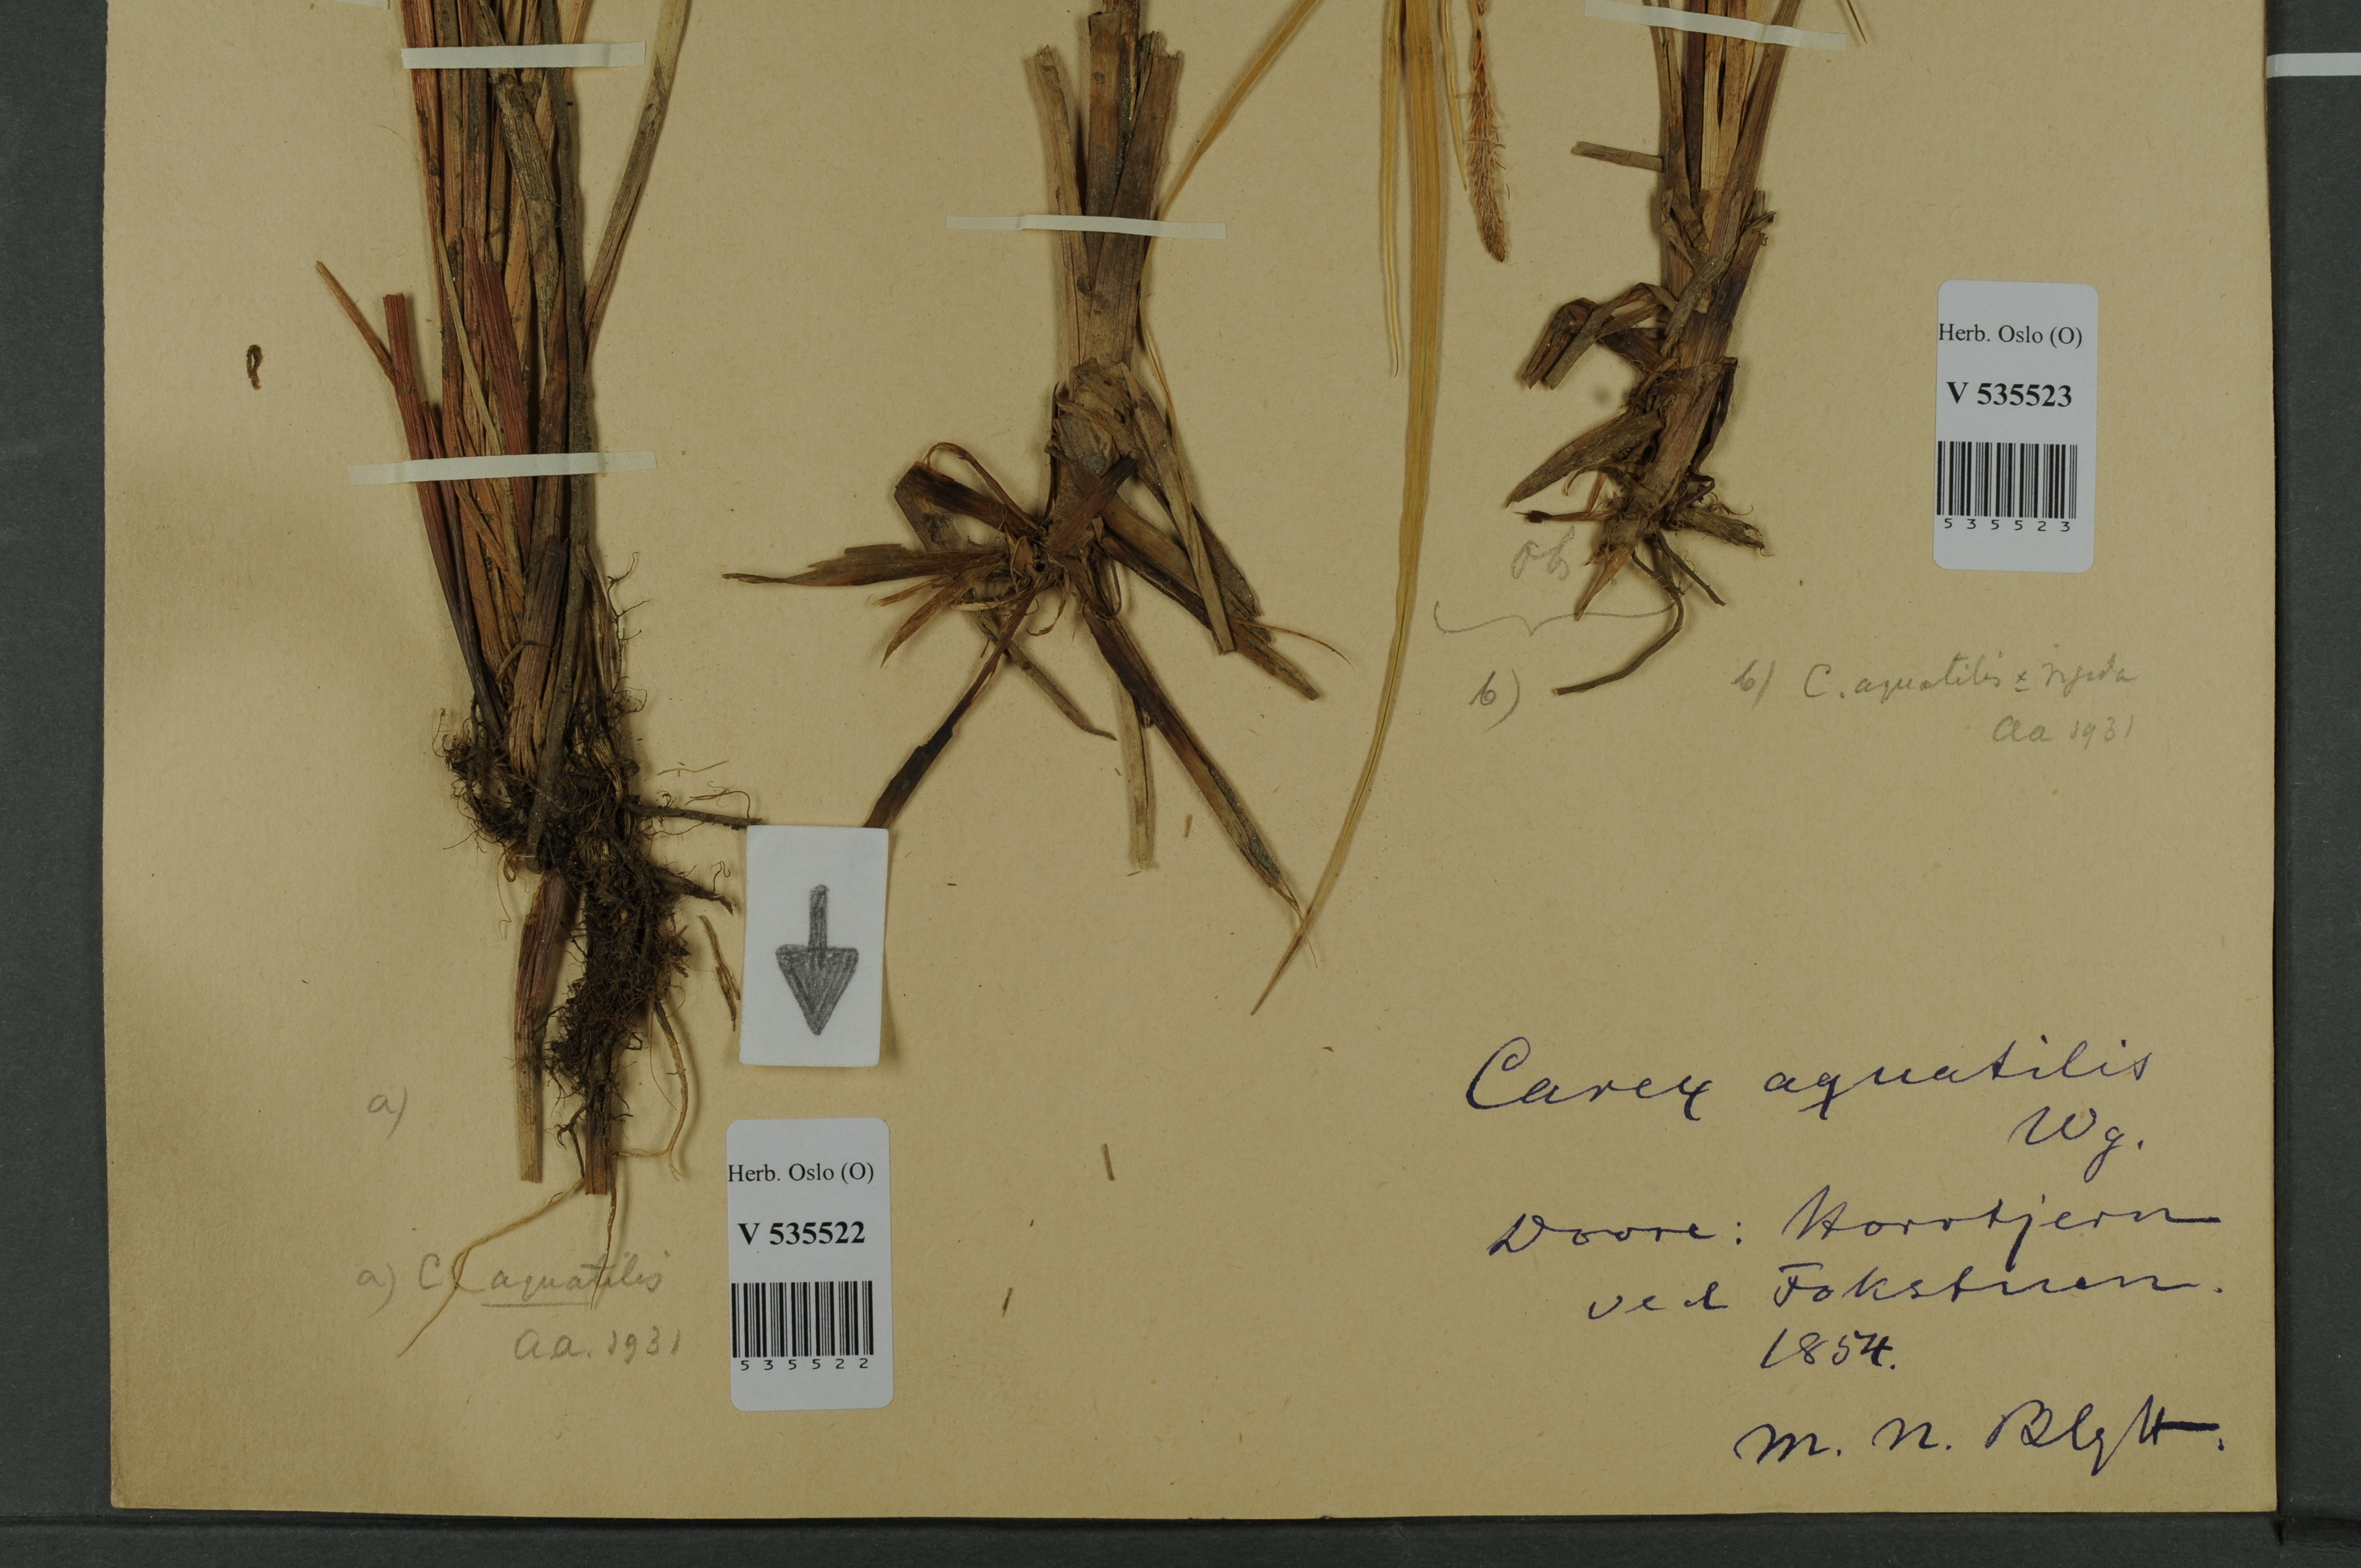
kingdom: Plantae
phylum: Tracheophyta
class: Liliopsida
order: Poales
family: Cyperaceae
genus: Carex
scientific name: Carex aquatilis
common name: Water sedge
